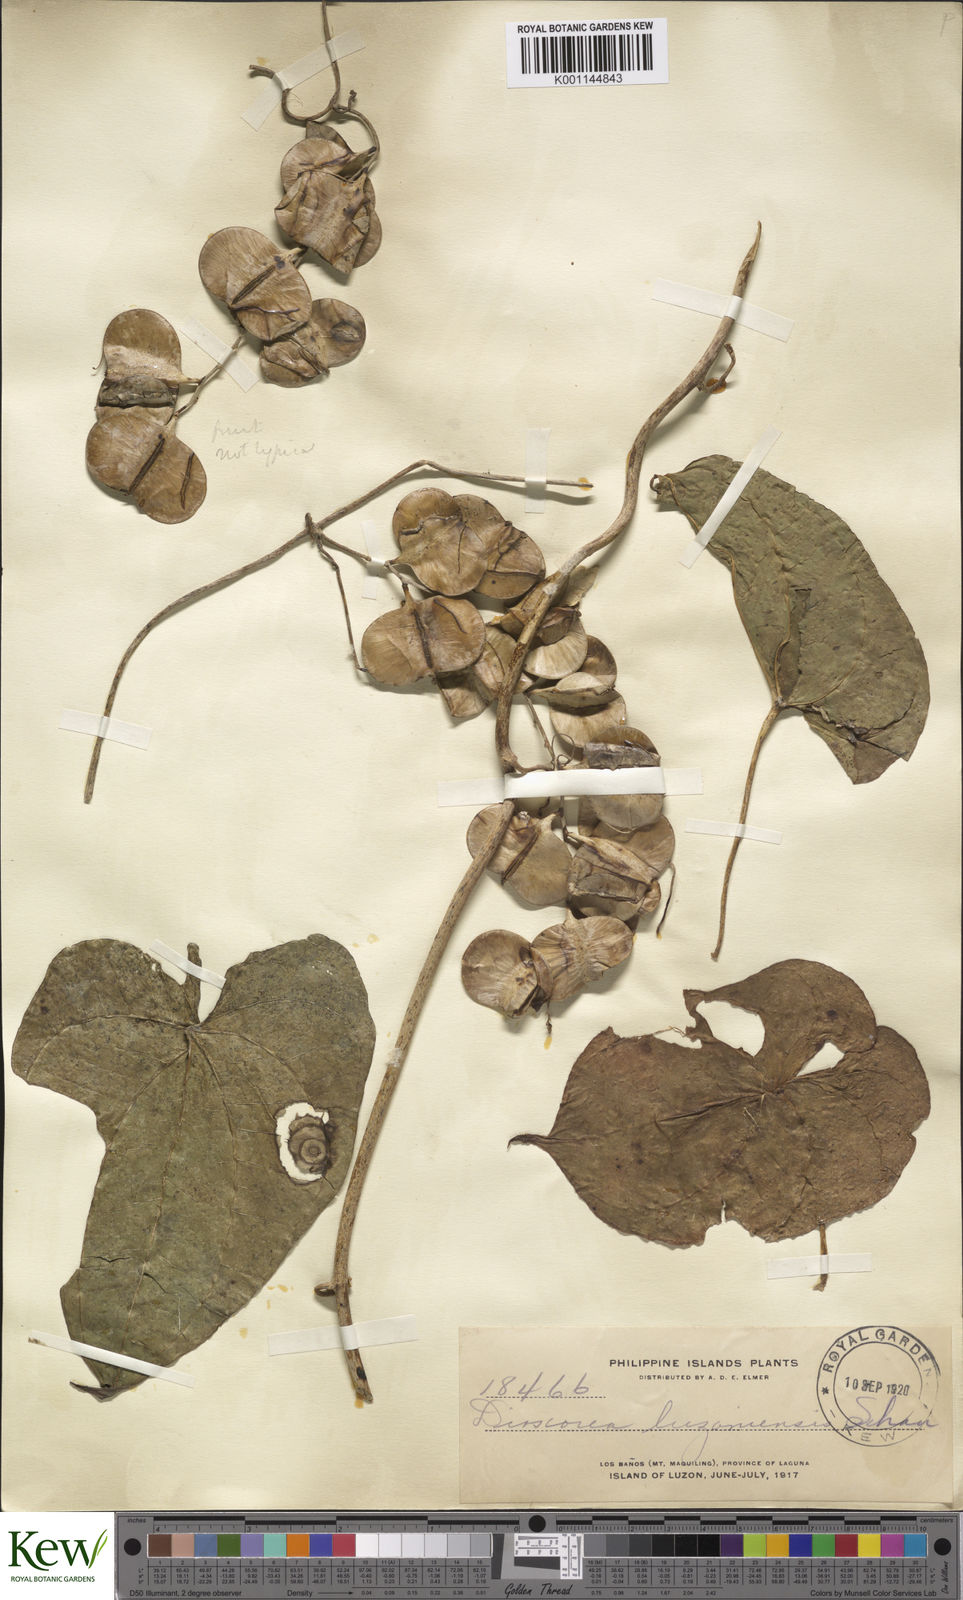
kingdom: Plantae
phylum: Tracheophyta
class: Liliopsida
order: Dioscoreales
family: Dioscoreaceae
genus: Dioscorea
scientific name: Dioscorea luzonensis
